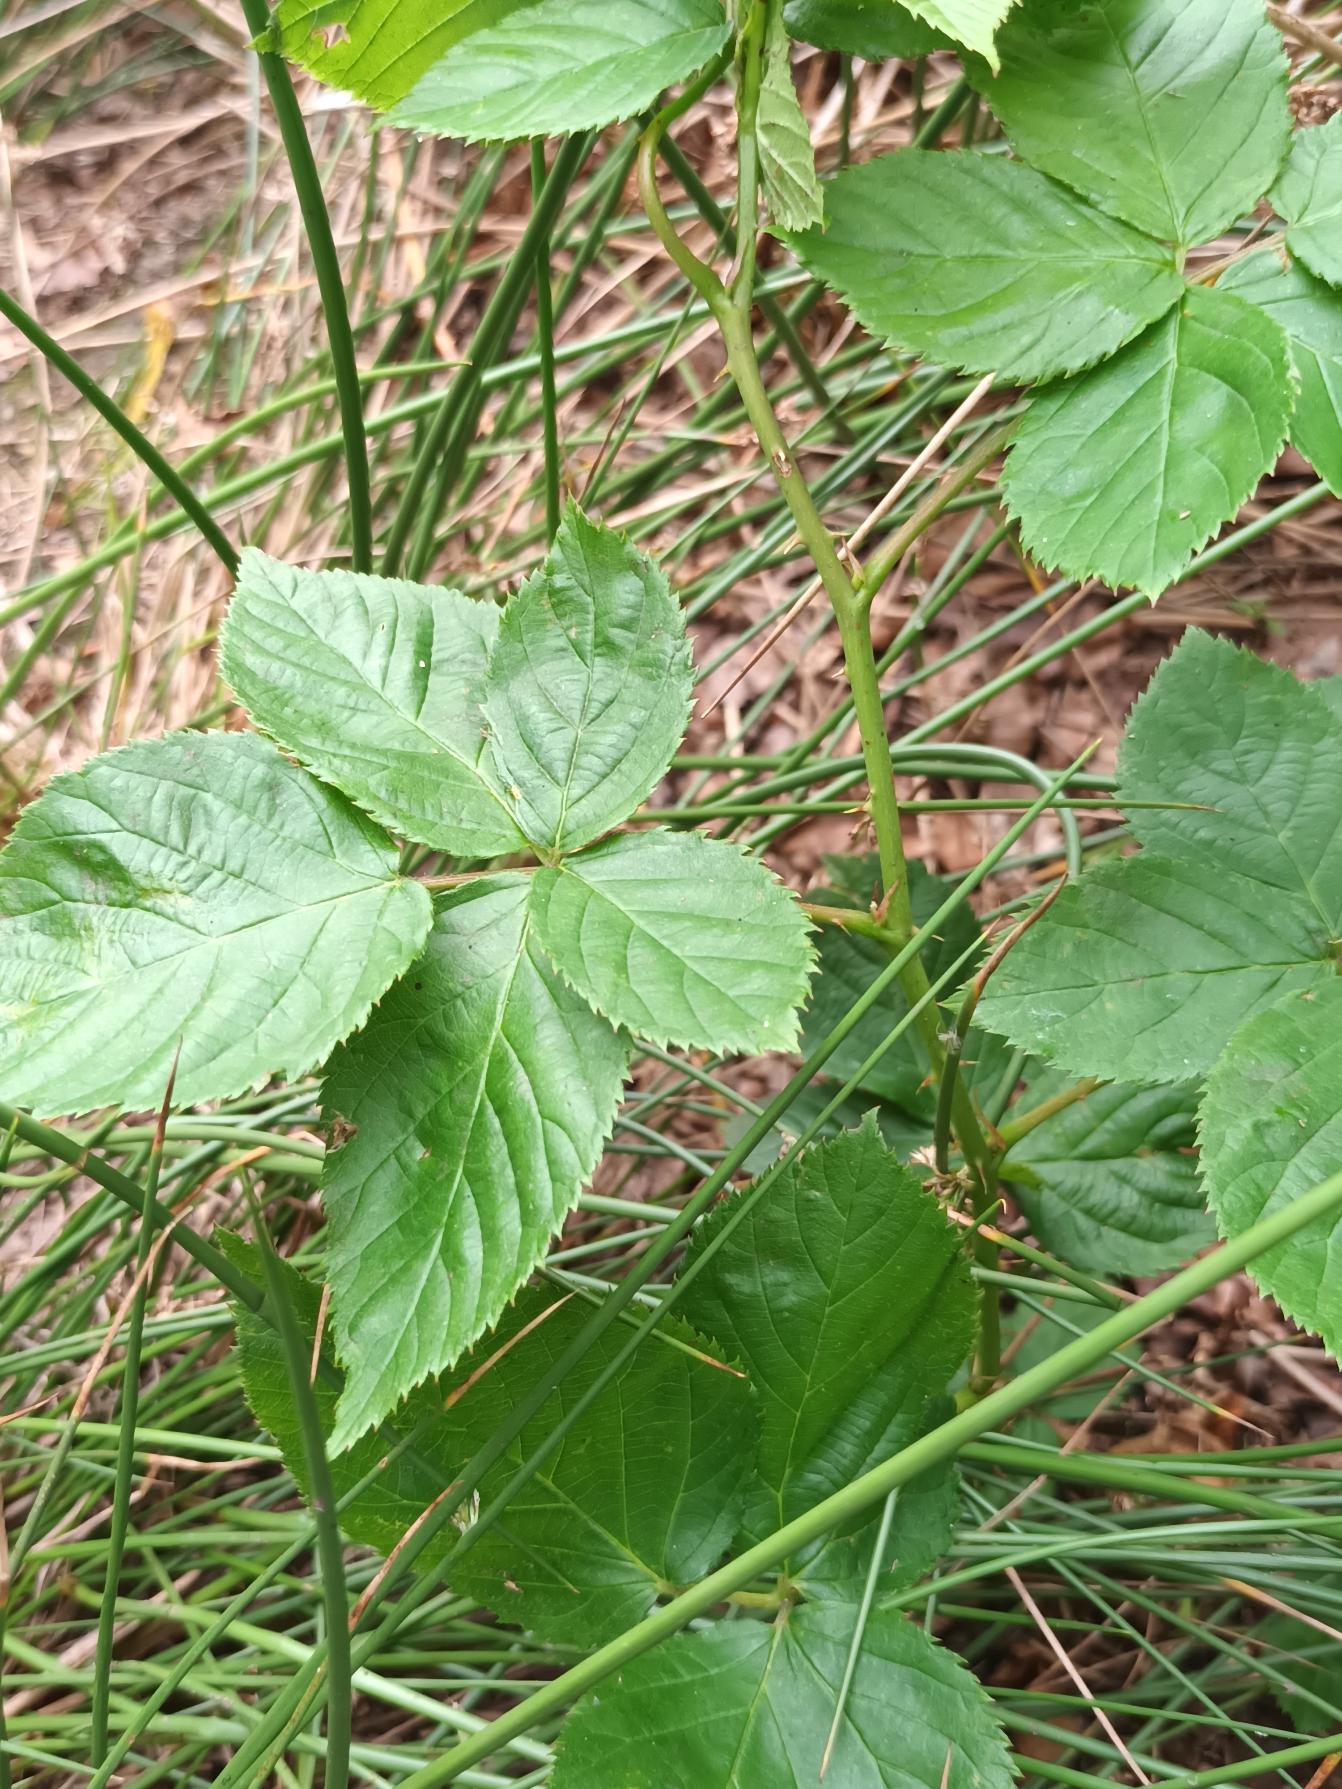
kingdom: Plantae
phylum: Tracheophyta
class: Magnoliopsida
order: Rosales
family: Rosaceae
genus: Rubus
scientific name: Rubus plicatus
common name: Almindelig brombær
